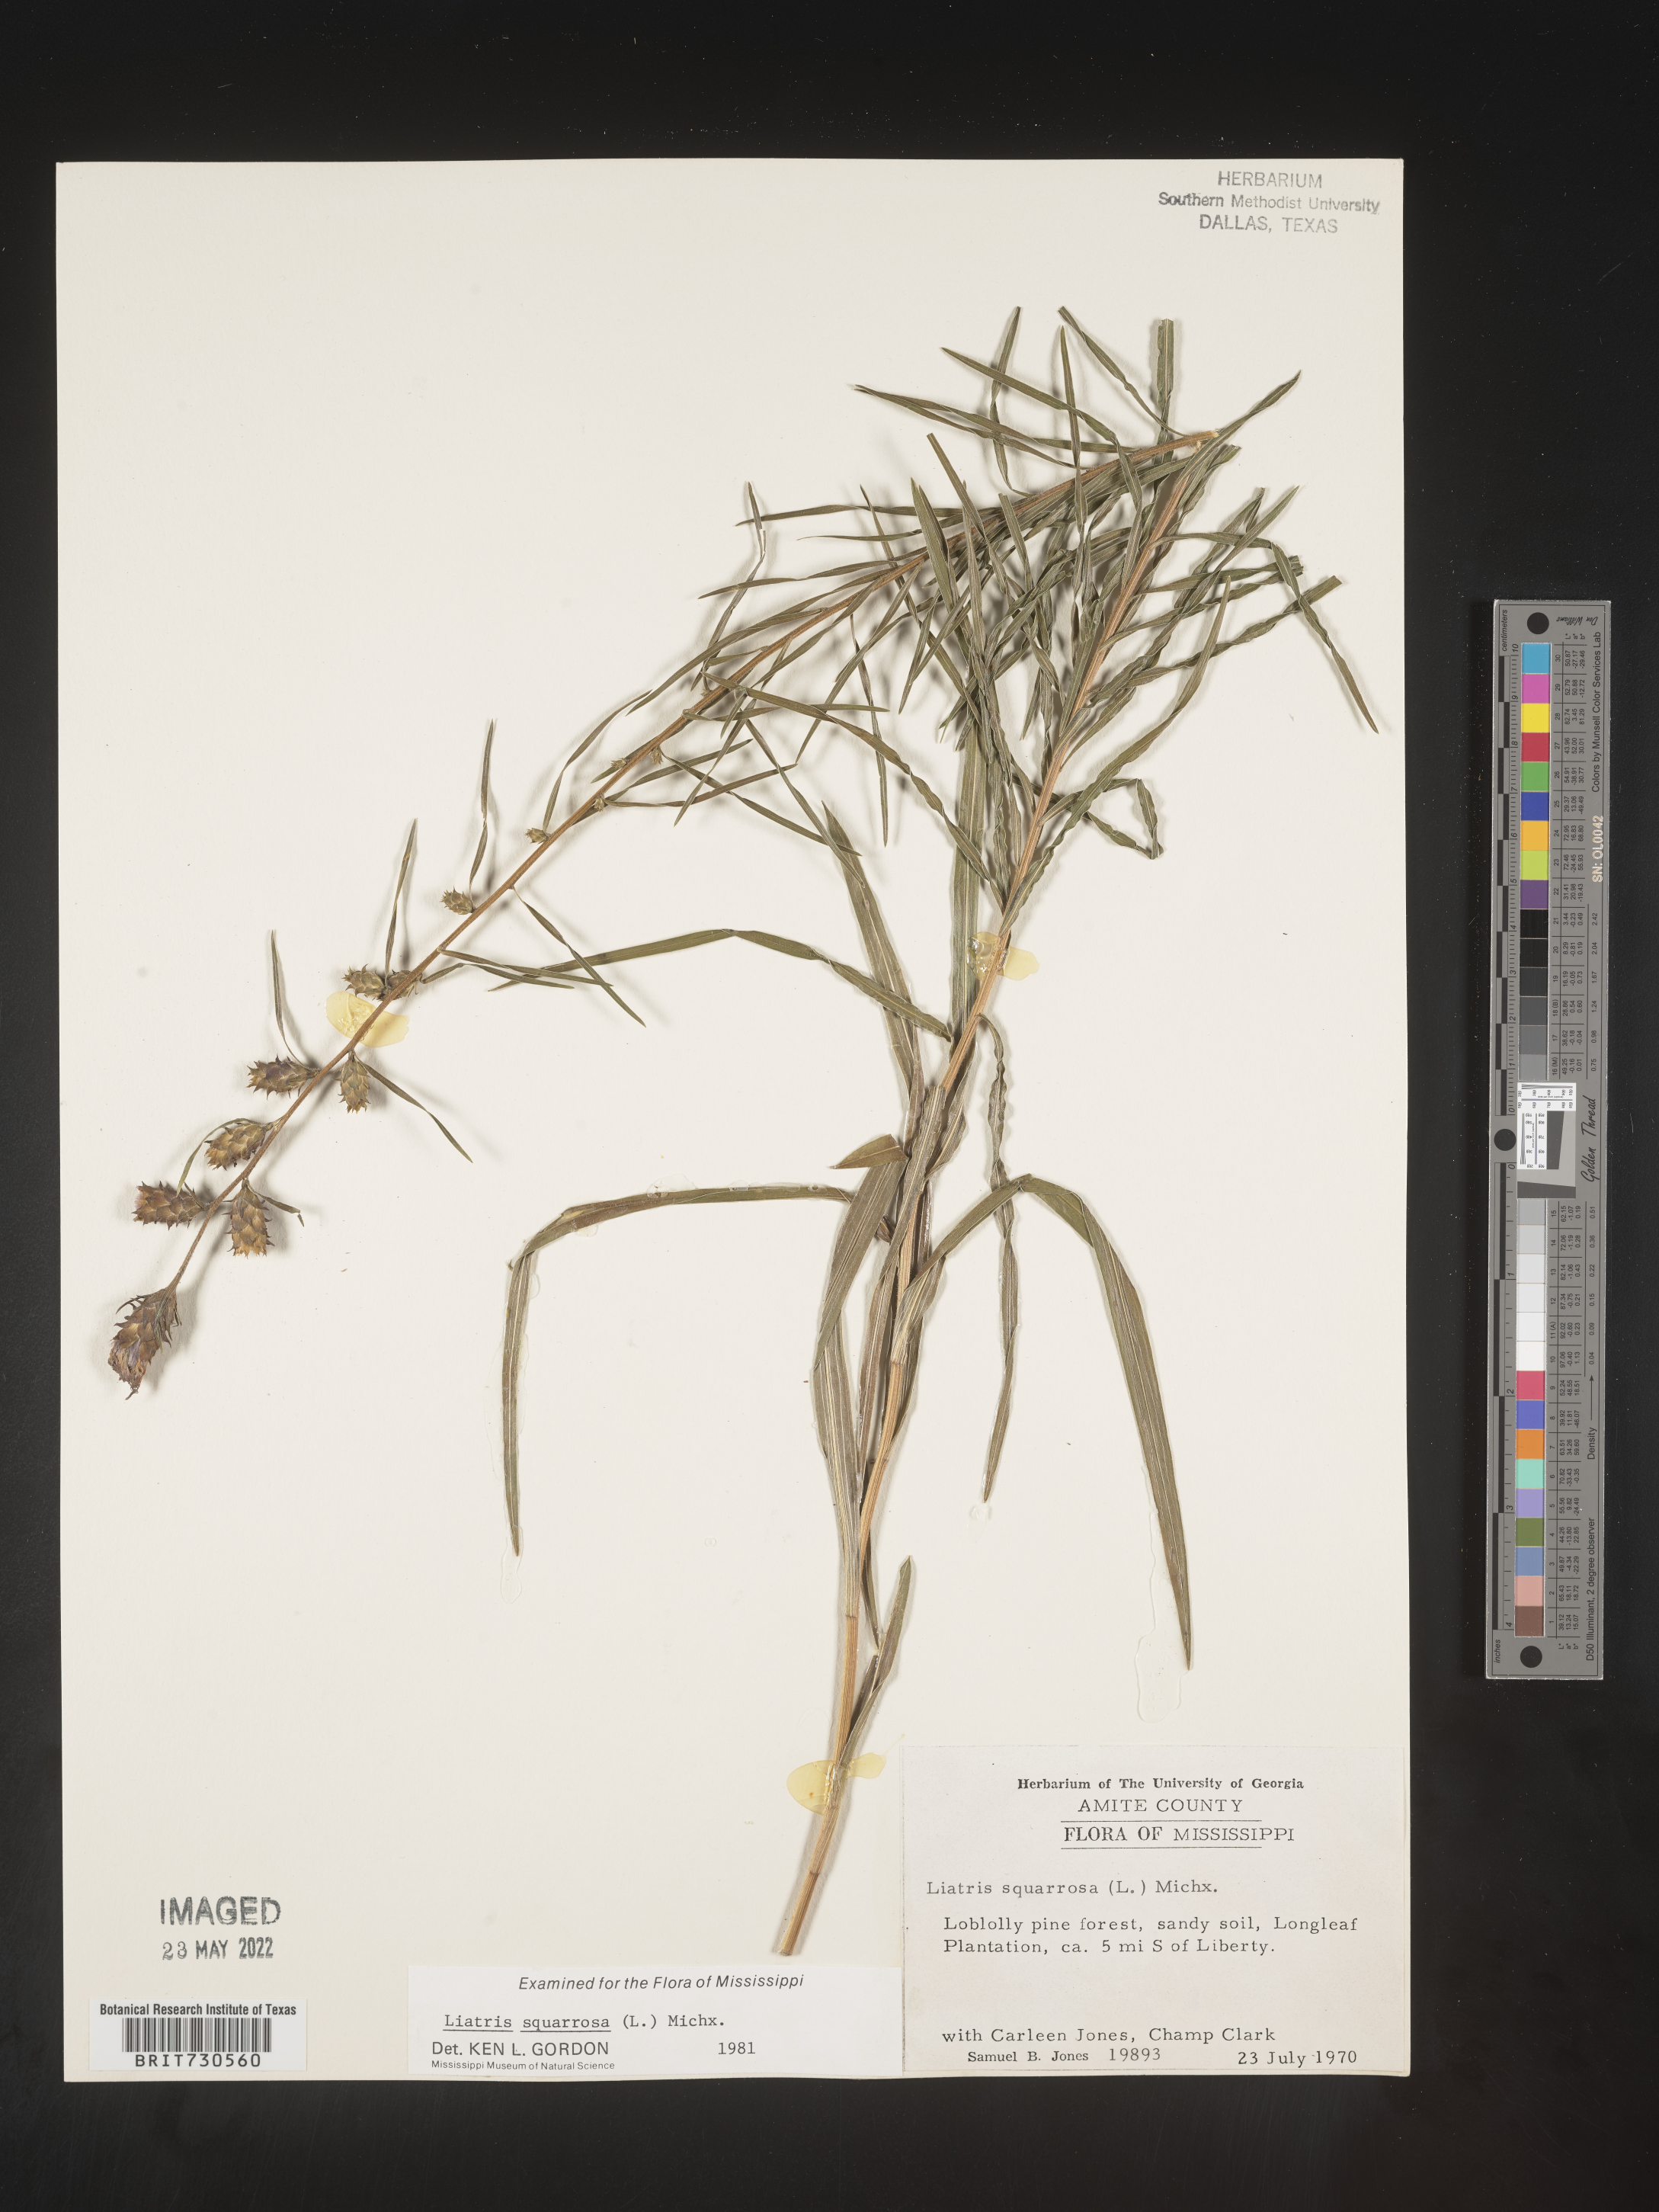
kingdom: Plantae
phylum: Tracheophyta
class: Magnoliopsida
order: Asterales
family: Asteraceae
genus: Liatris
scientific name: Liatris hirsuta
